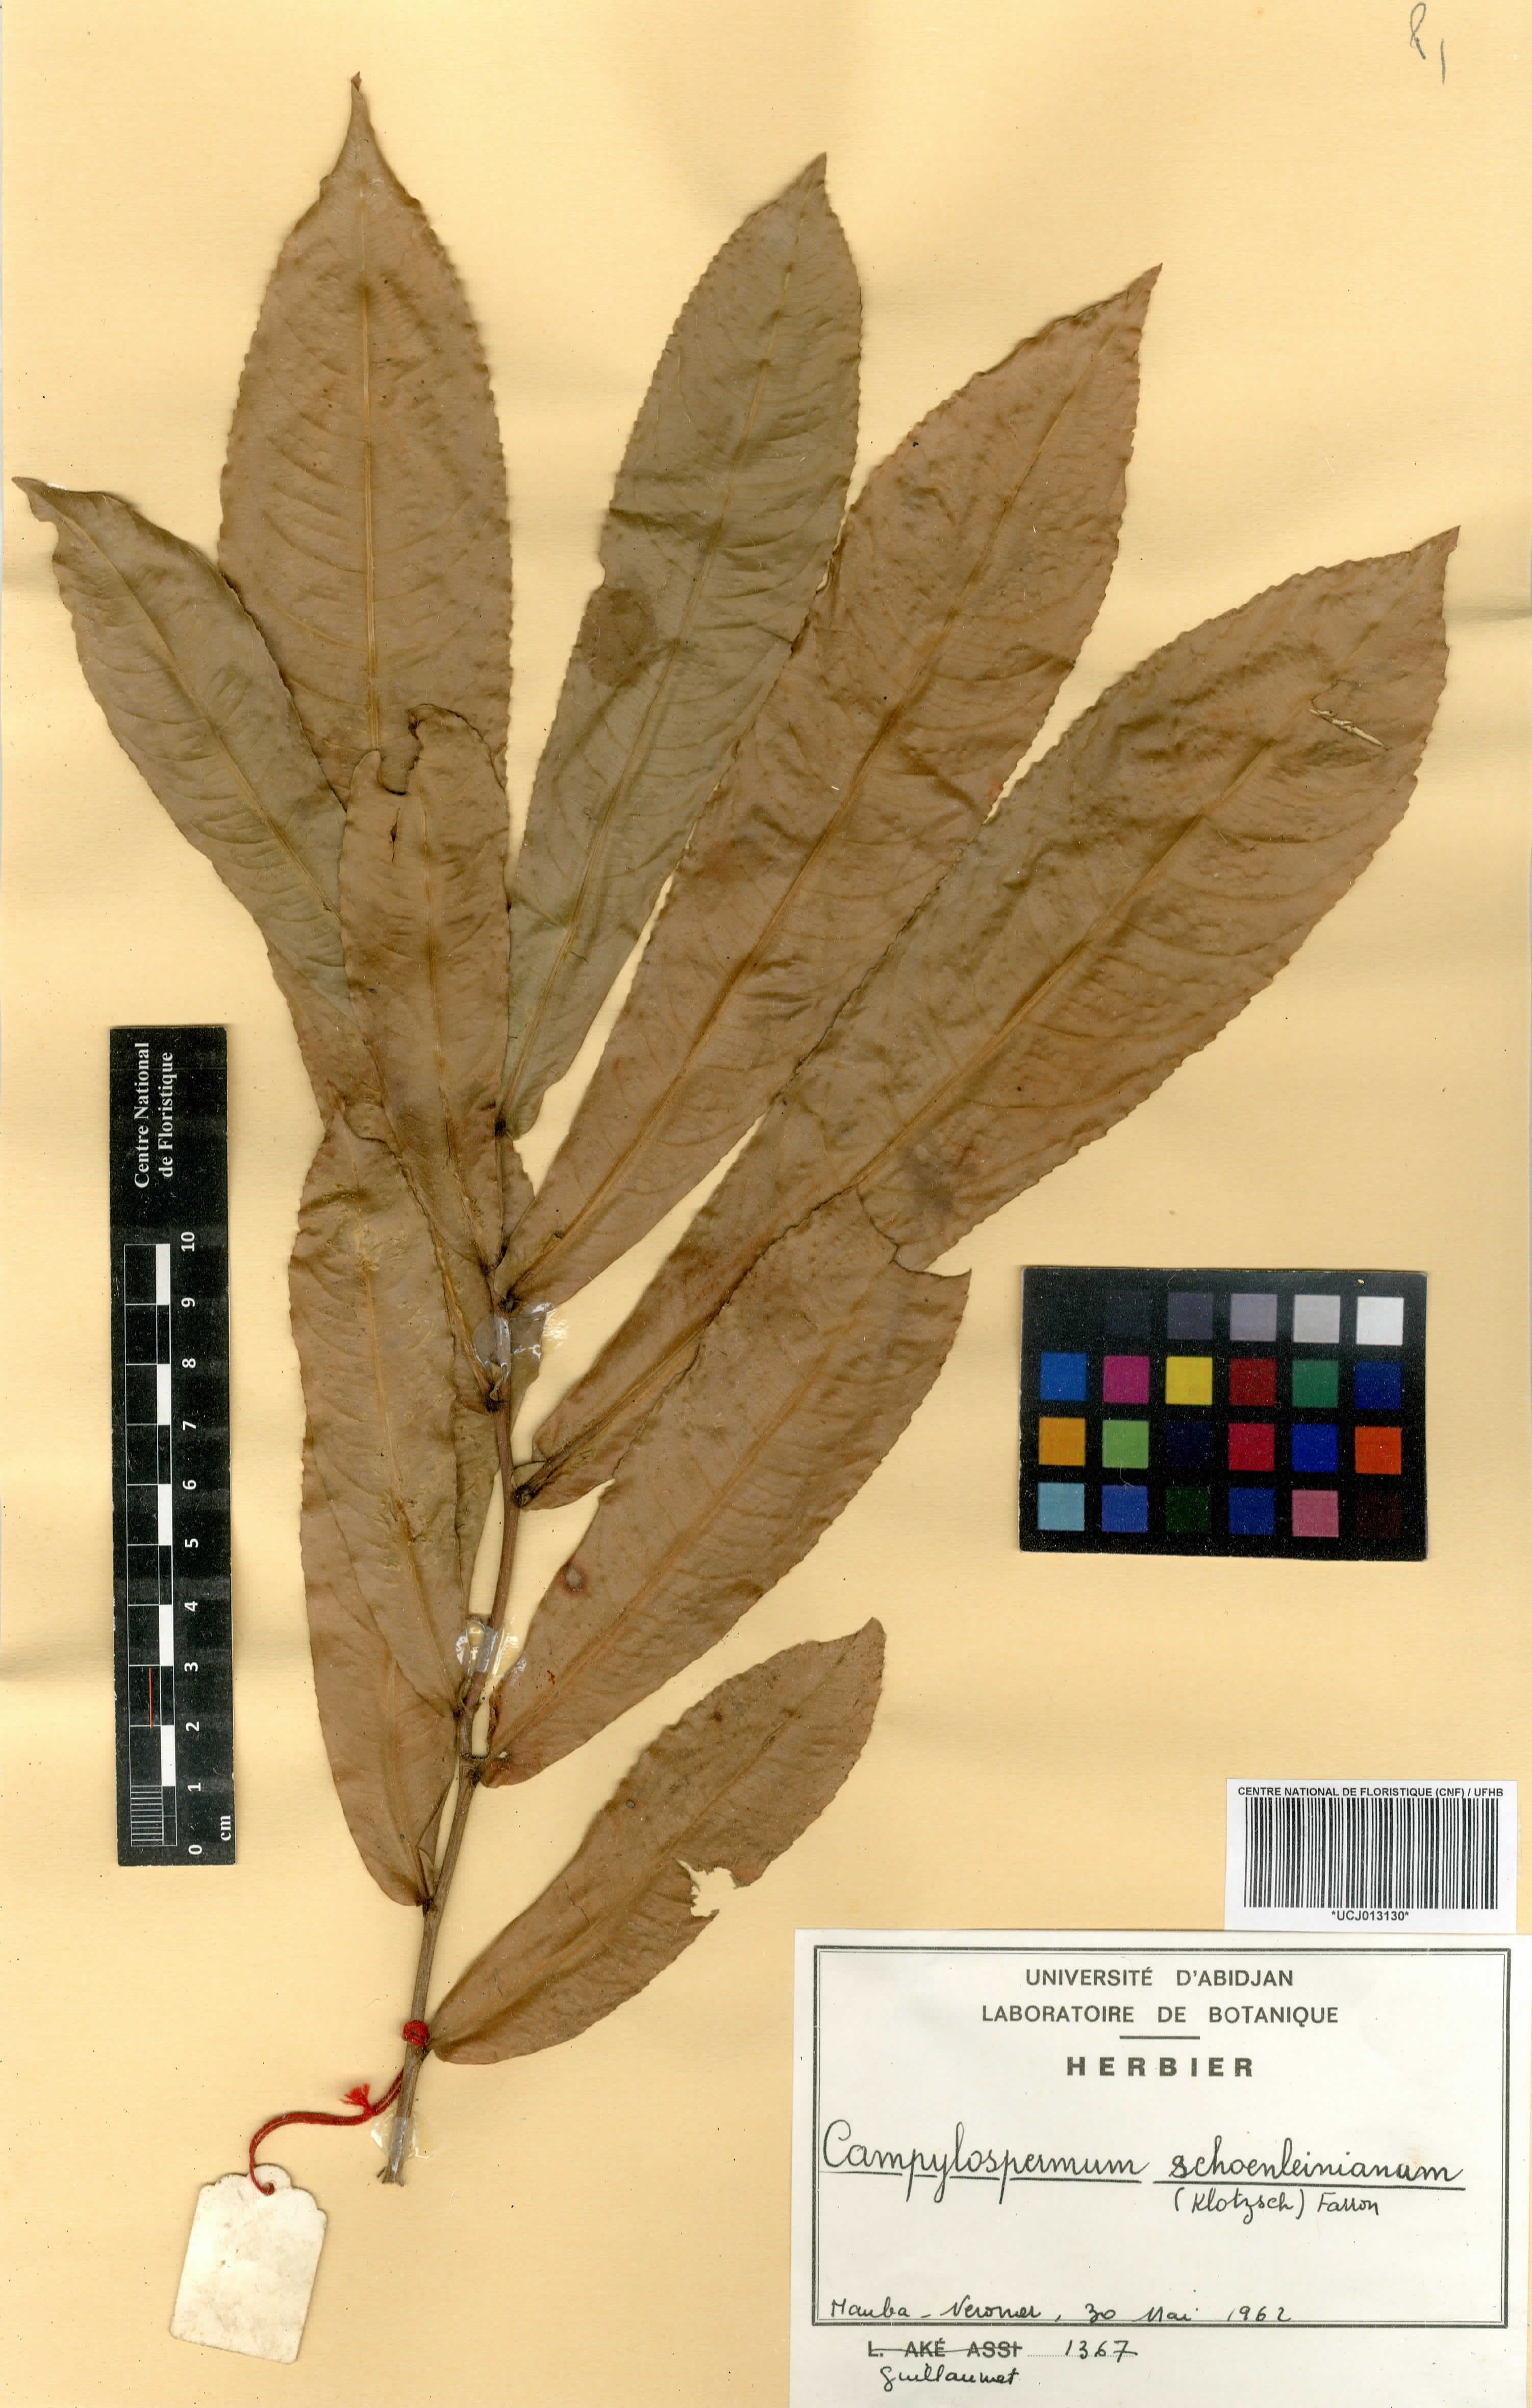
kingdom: Plantae
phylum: Tracheophyta
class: Magnoliopsida
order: Malpighiales
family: Ochnaceae
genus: Campylospermum
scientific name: Campylospermum schoenleinianum
